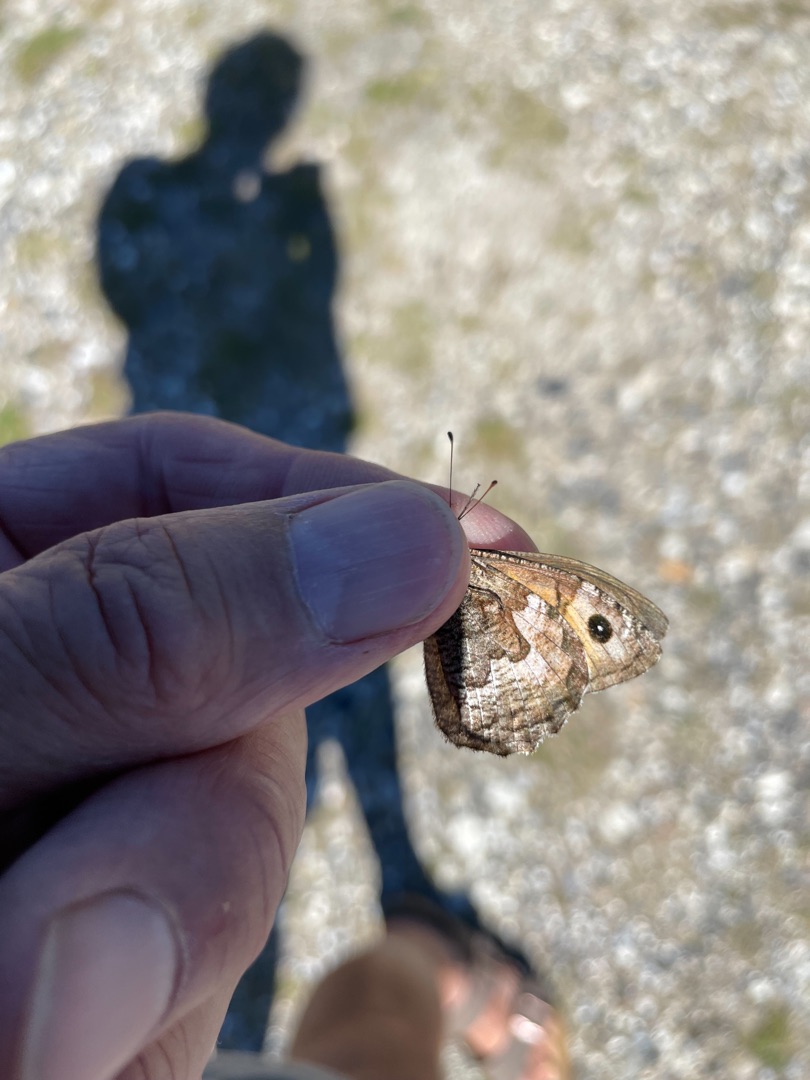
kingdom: Animalia
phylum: Arthropoda
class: Insecta
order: Lepidoptera
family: Nymphalidae
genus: Hipparchia
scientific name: Hipparchia semele
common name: Sandrandøje
